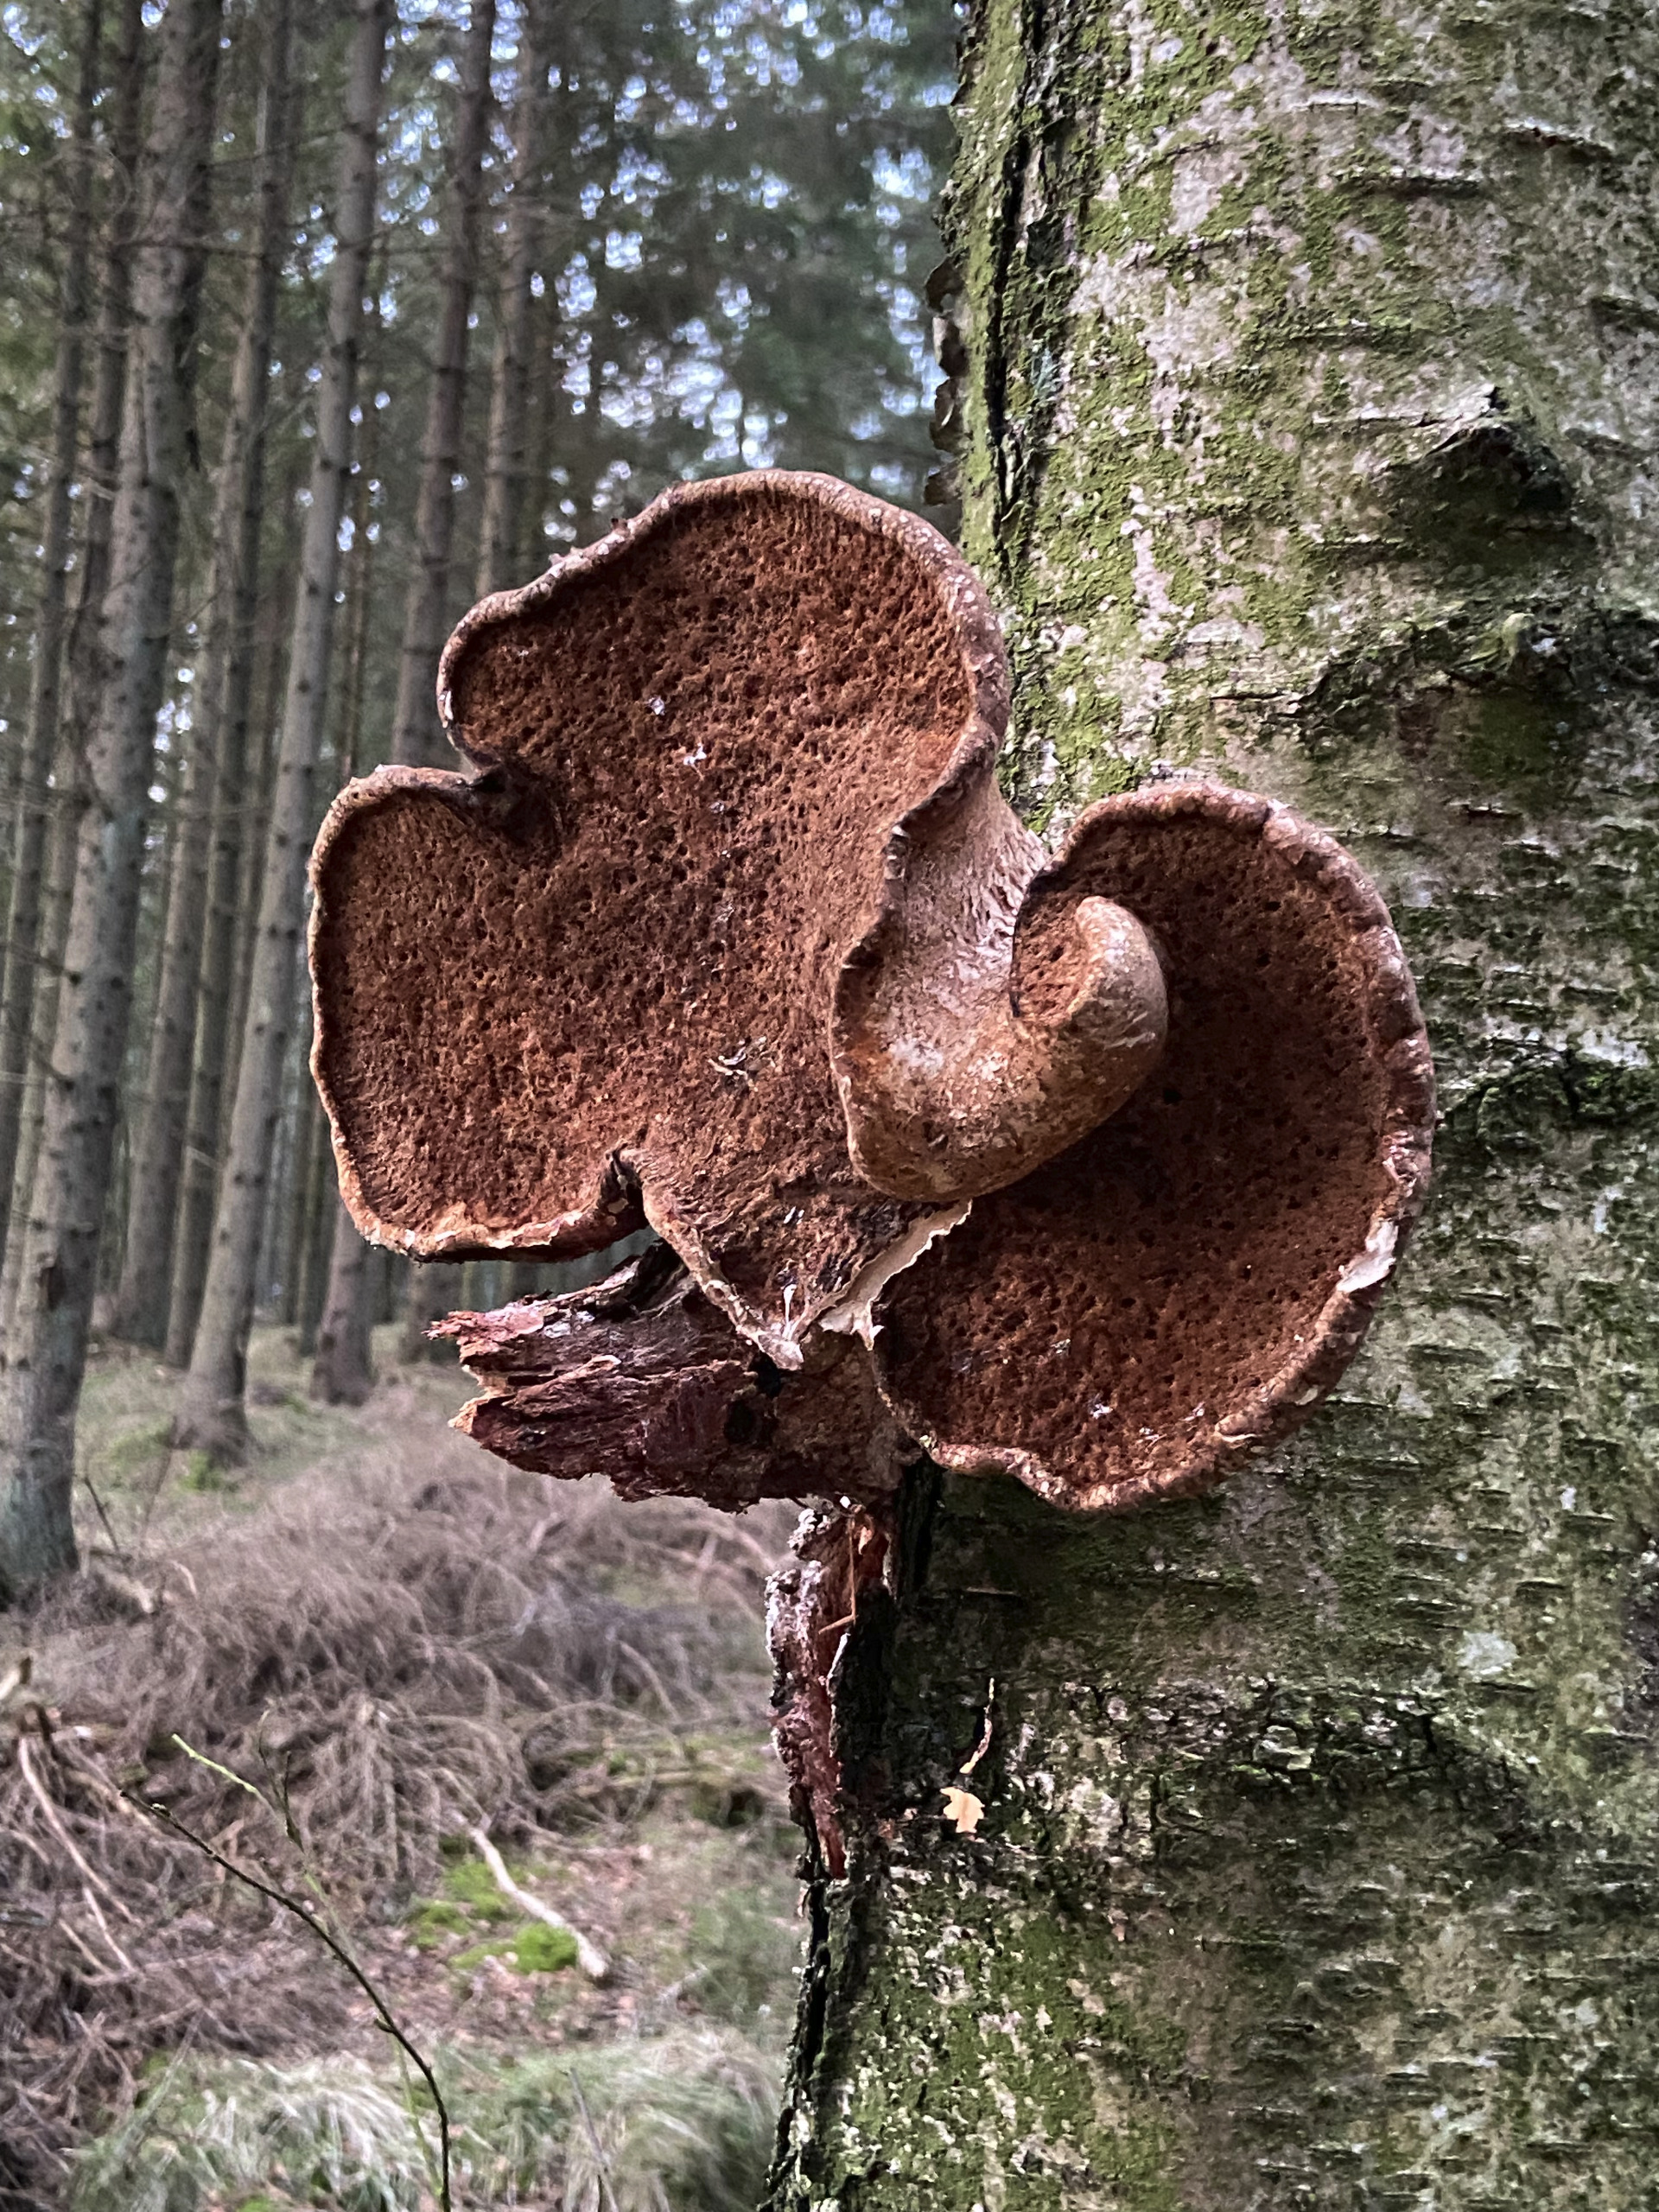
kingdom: Animalia
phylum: Arthropoda
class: Insecta
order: Coleoptera
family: Tenebrionidae
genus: Diaperis
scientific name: Diaperis boleti
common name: Tigerskyggebille
